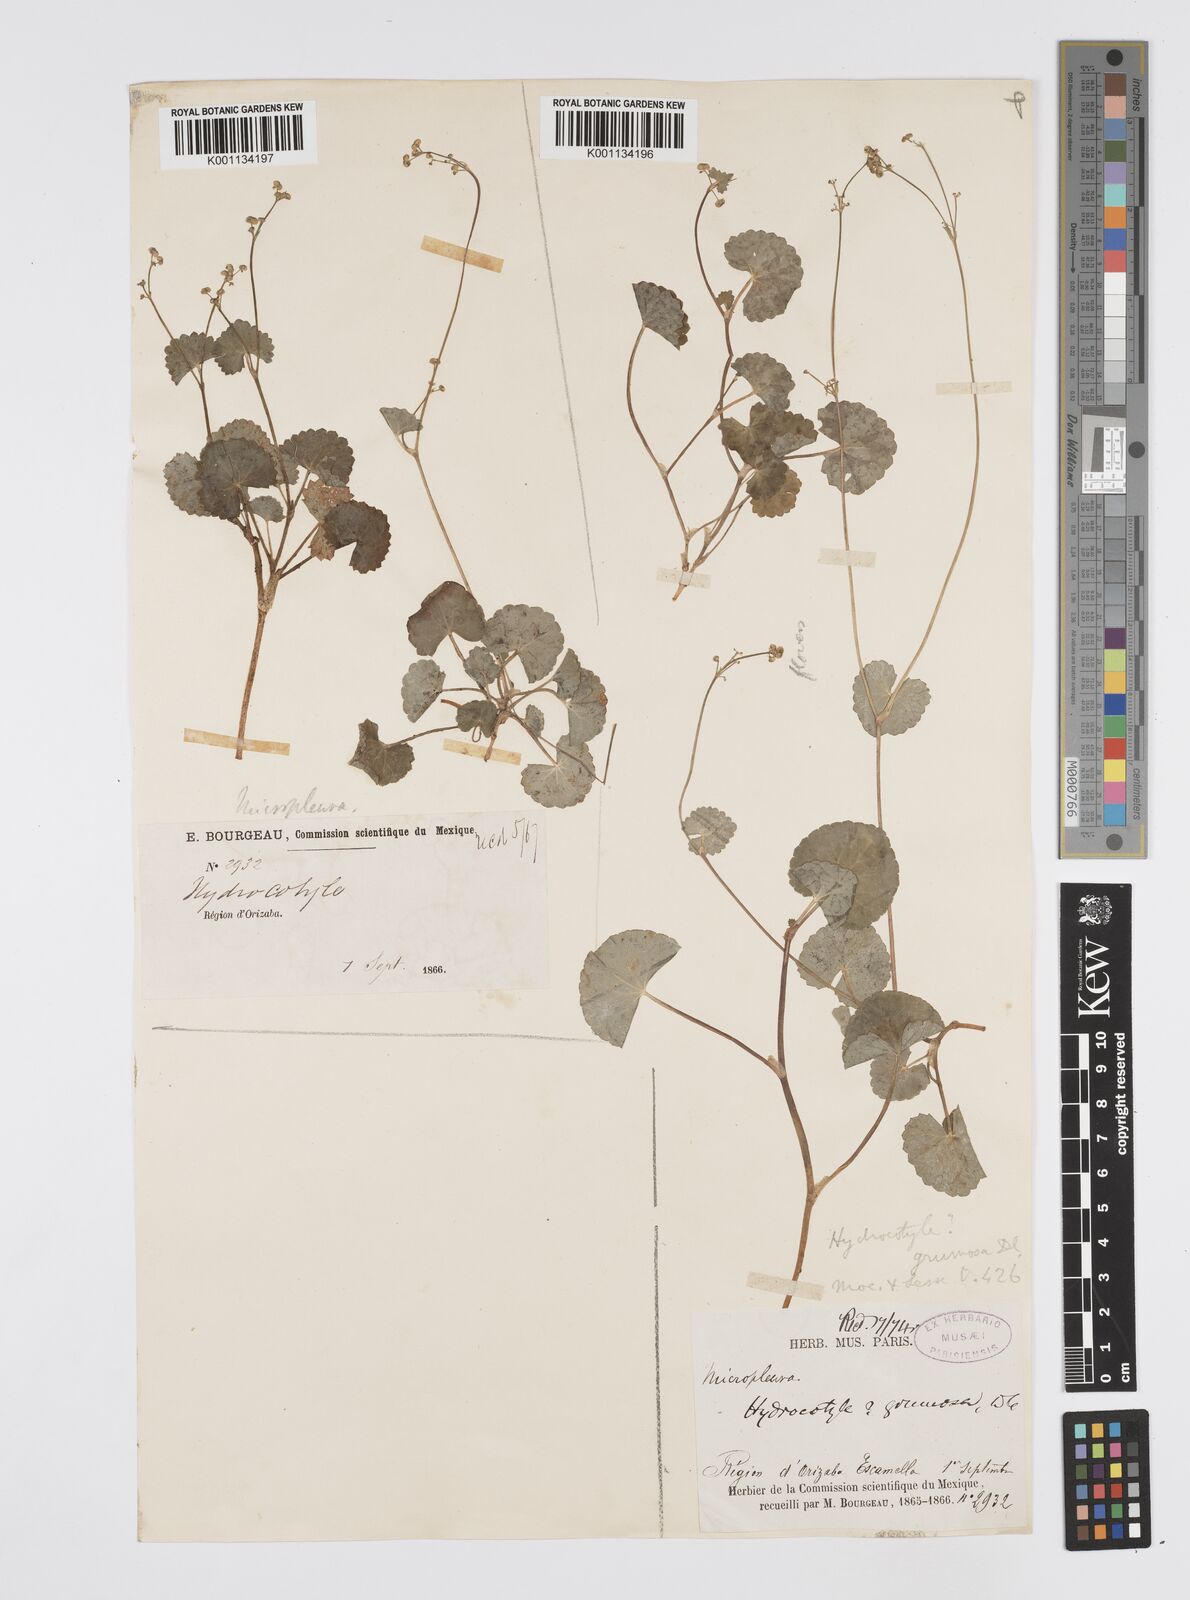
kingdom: Plantae
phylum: Tracheophyta
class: Magnoliopsida
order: Apiales
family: Apiaceae
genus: Micropleura
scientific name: Micropleura renifolia
